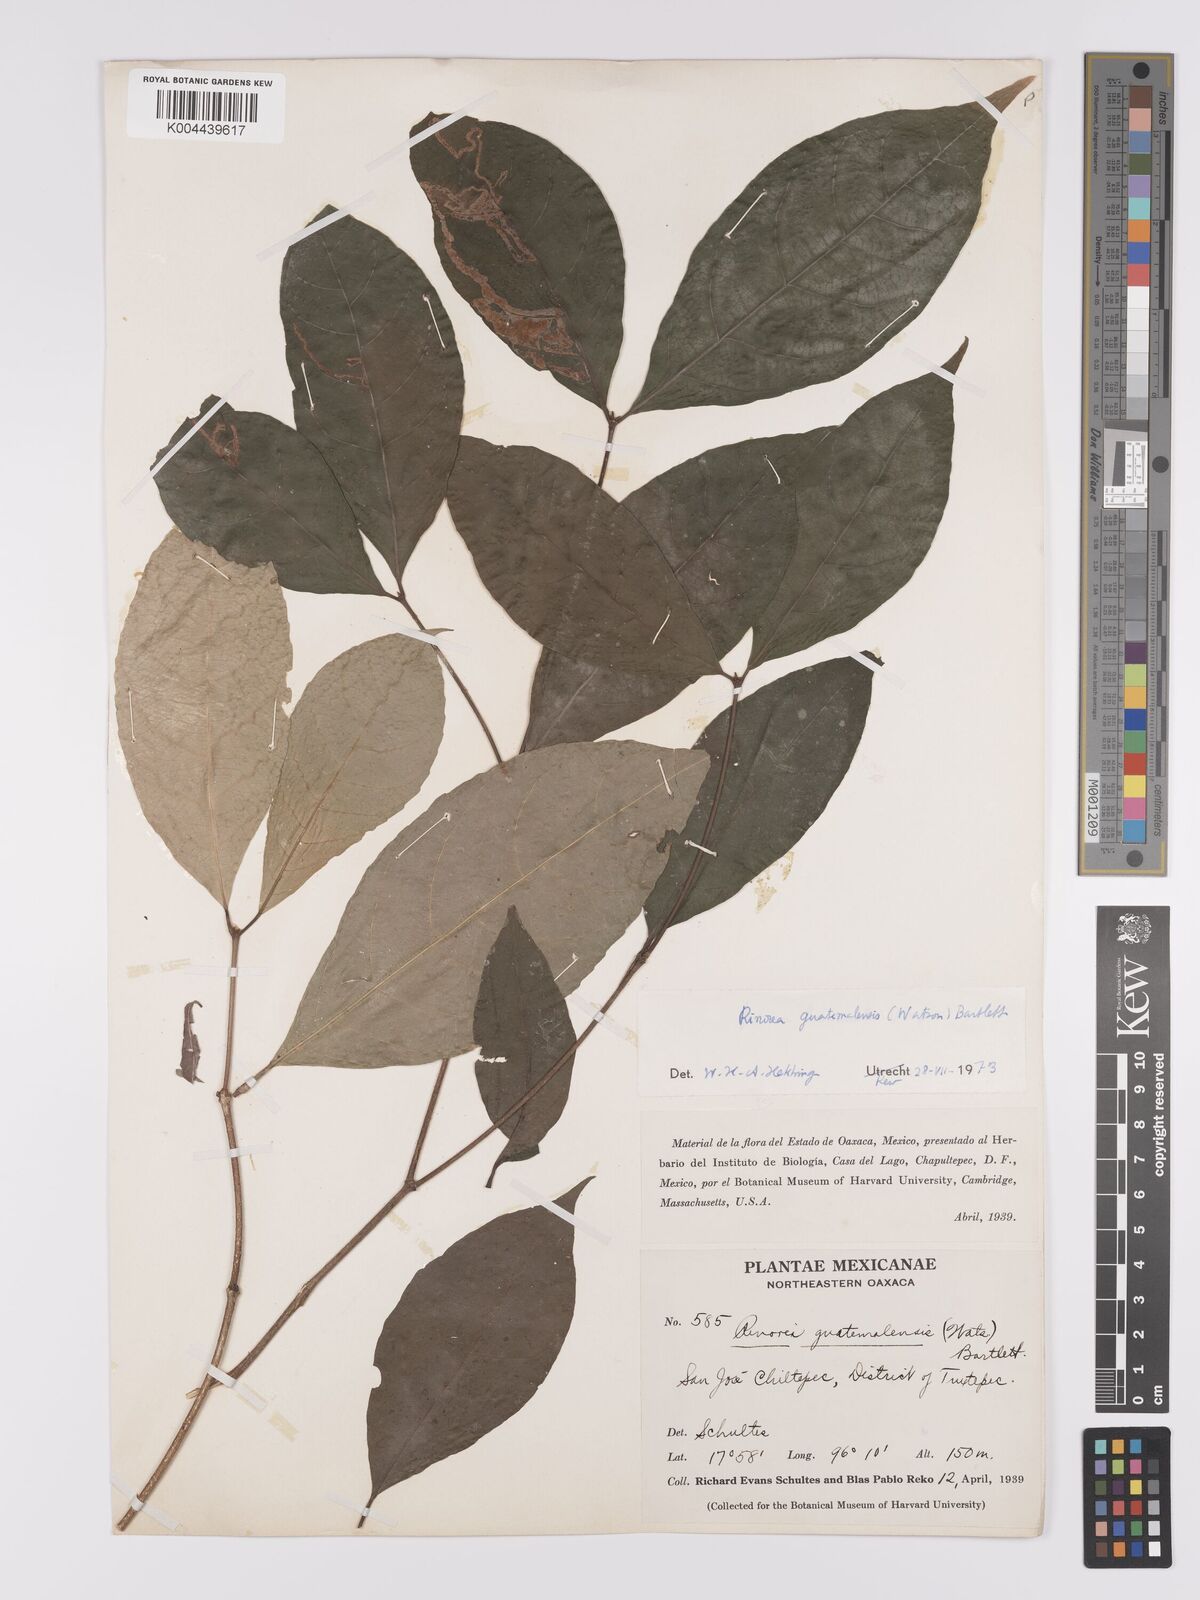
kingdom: Plantae
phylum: Tracheophyta
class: Magnoliopsida
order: Malpighiales
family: Violaceae
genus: Rinorea
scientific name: Rinorea guatemalensis
